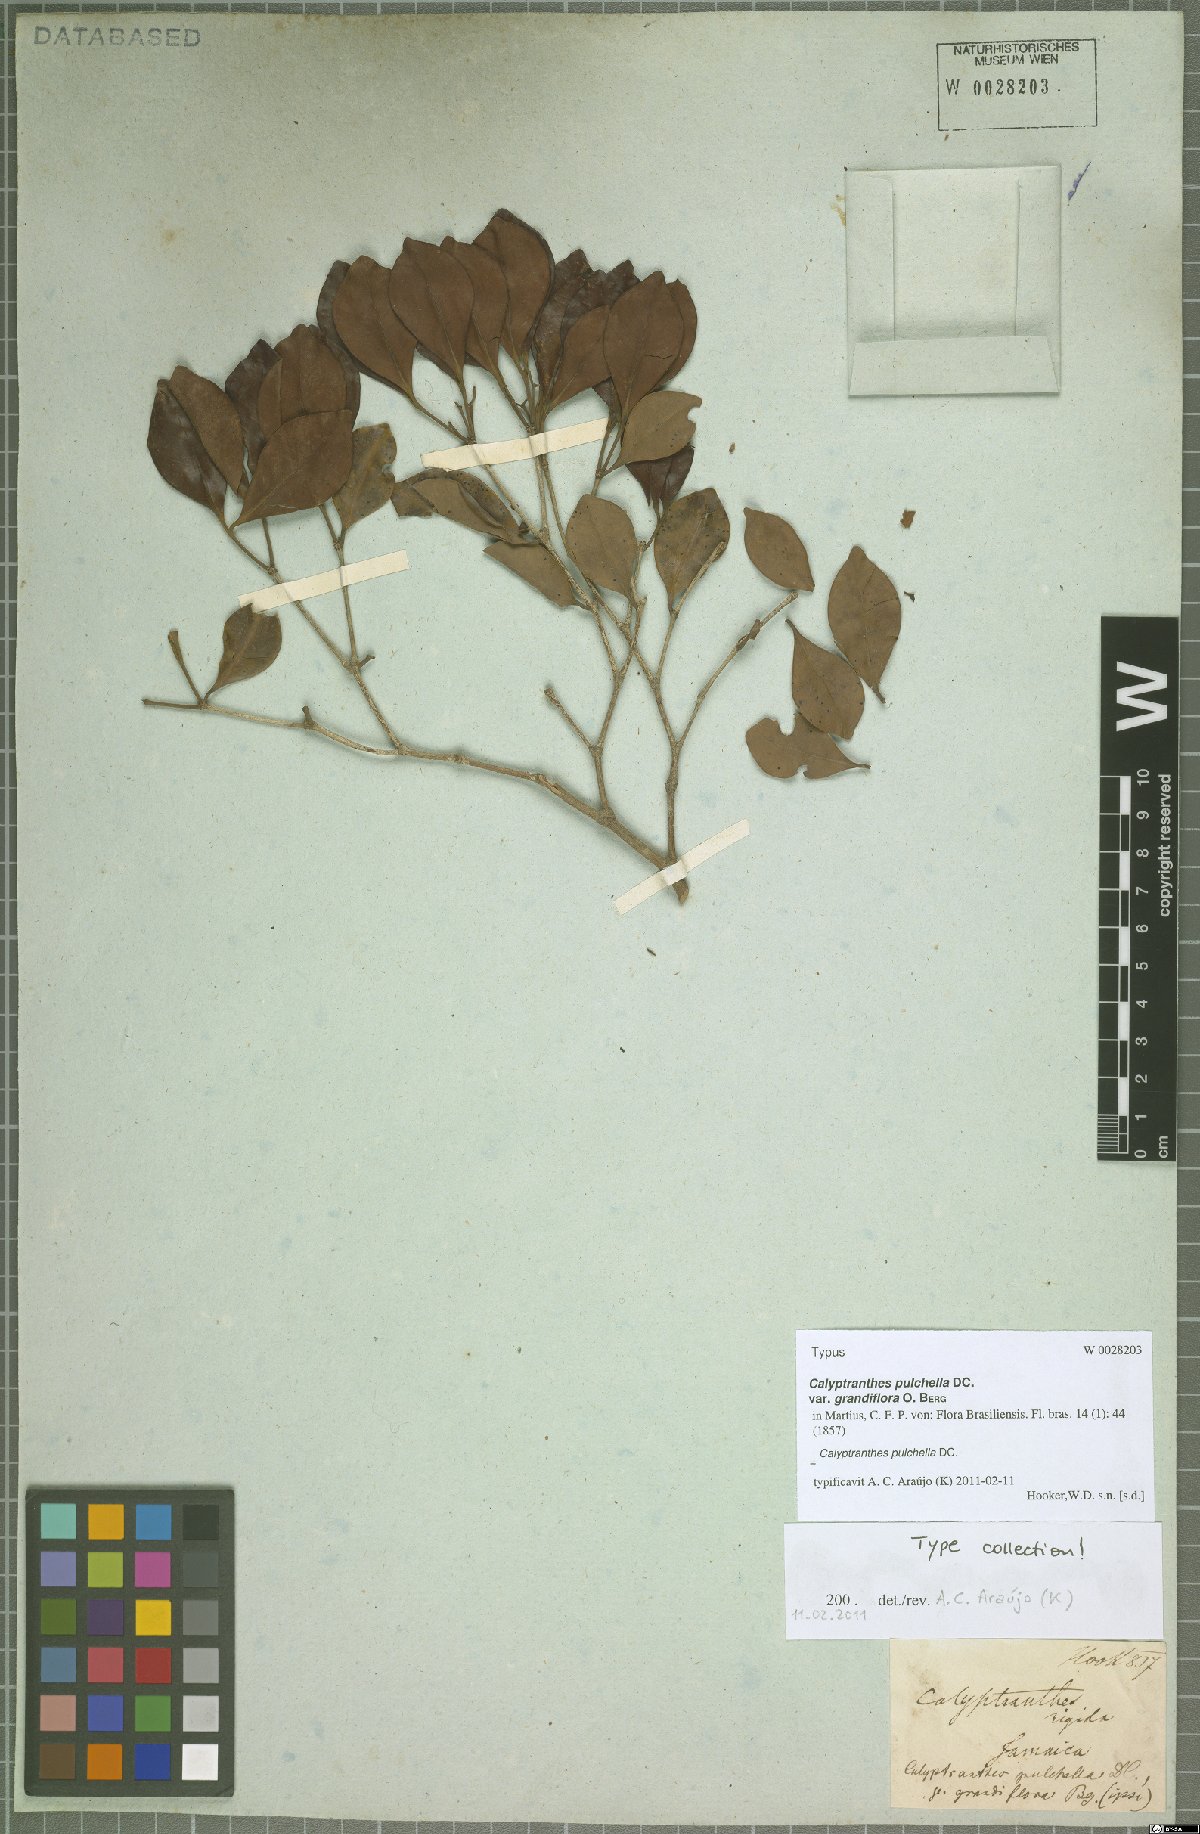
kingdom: Plantae
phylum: Tracheophyta
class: Magnoliopsida
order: Myrtales
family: Myrtaceae
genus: Myrcia
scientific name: Myrcia pulchella
